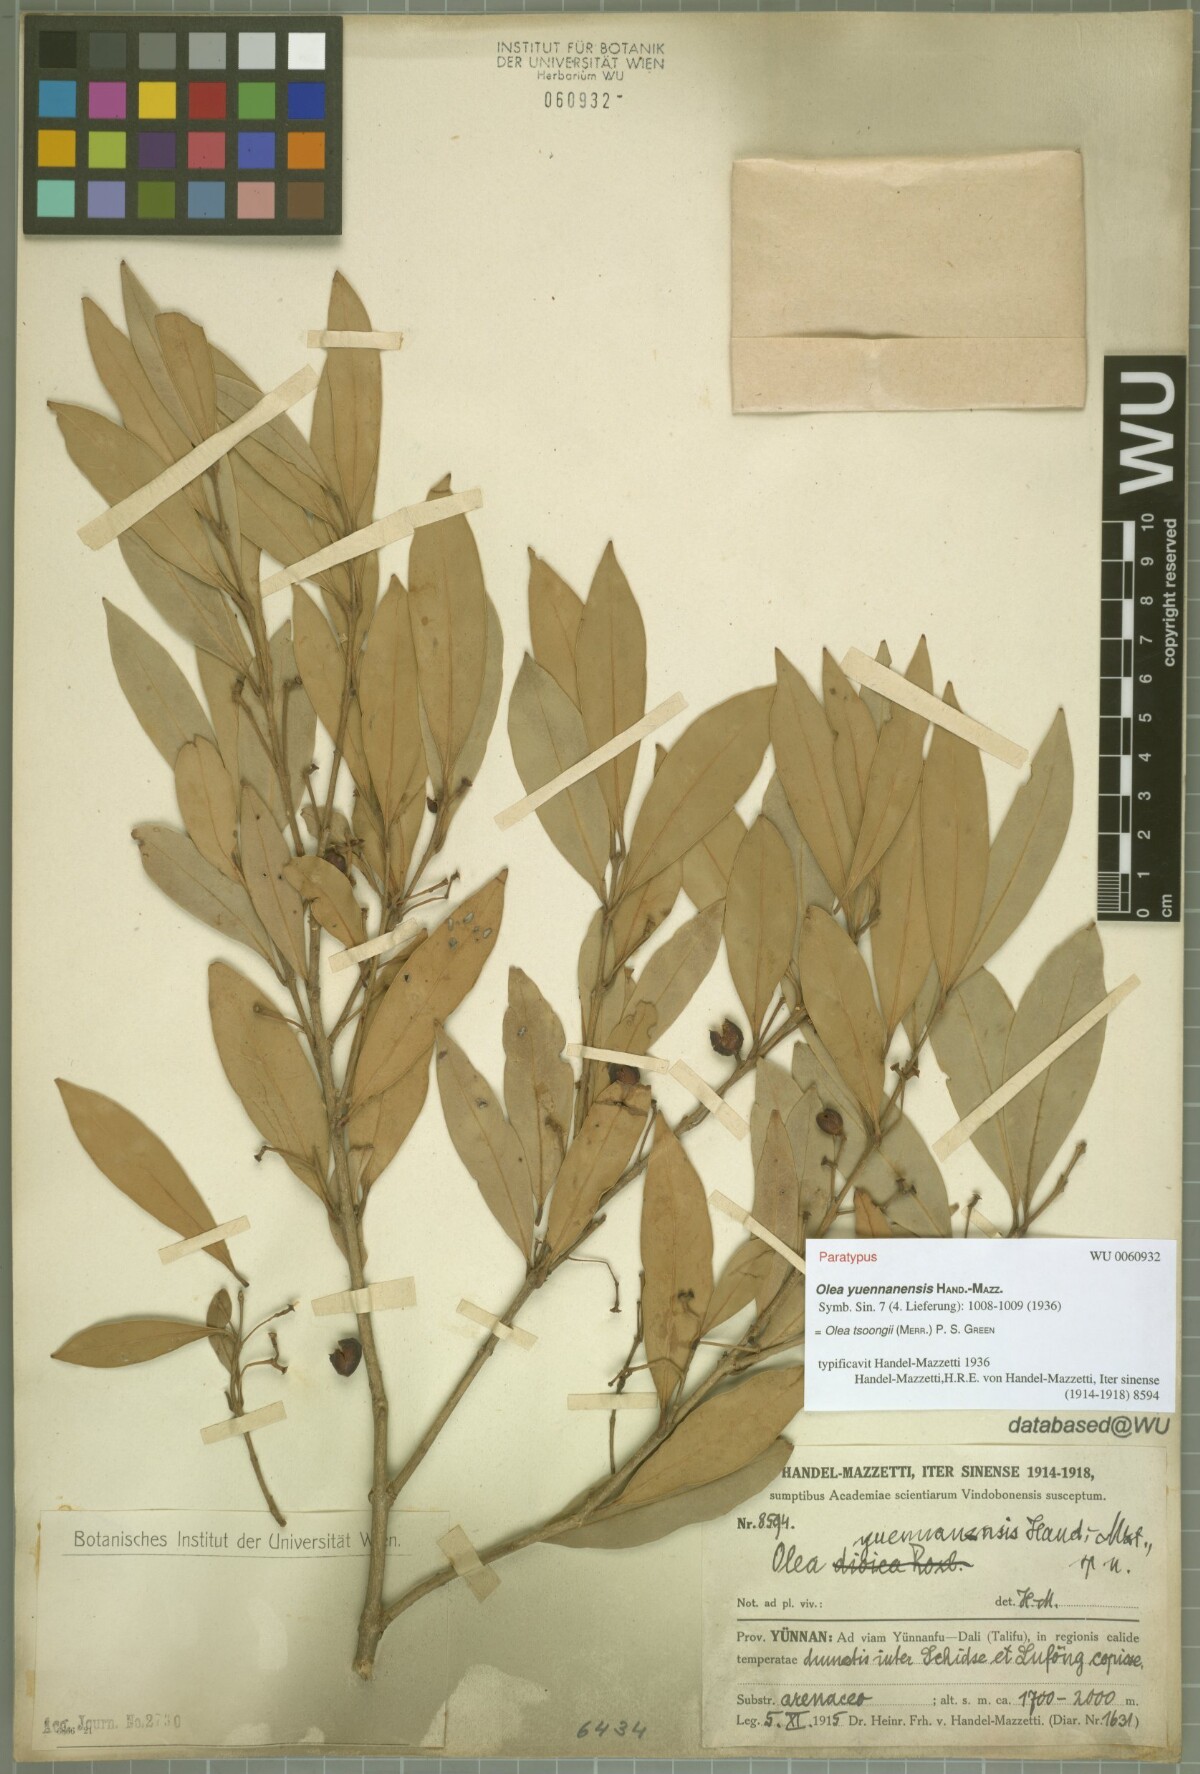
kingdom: Plantae
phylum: Tracheophyta
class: Magnoliopsida
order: Lamiales
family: Oleaceae
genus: Tetrapilus
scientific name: Tetrapilus tsoongii
